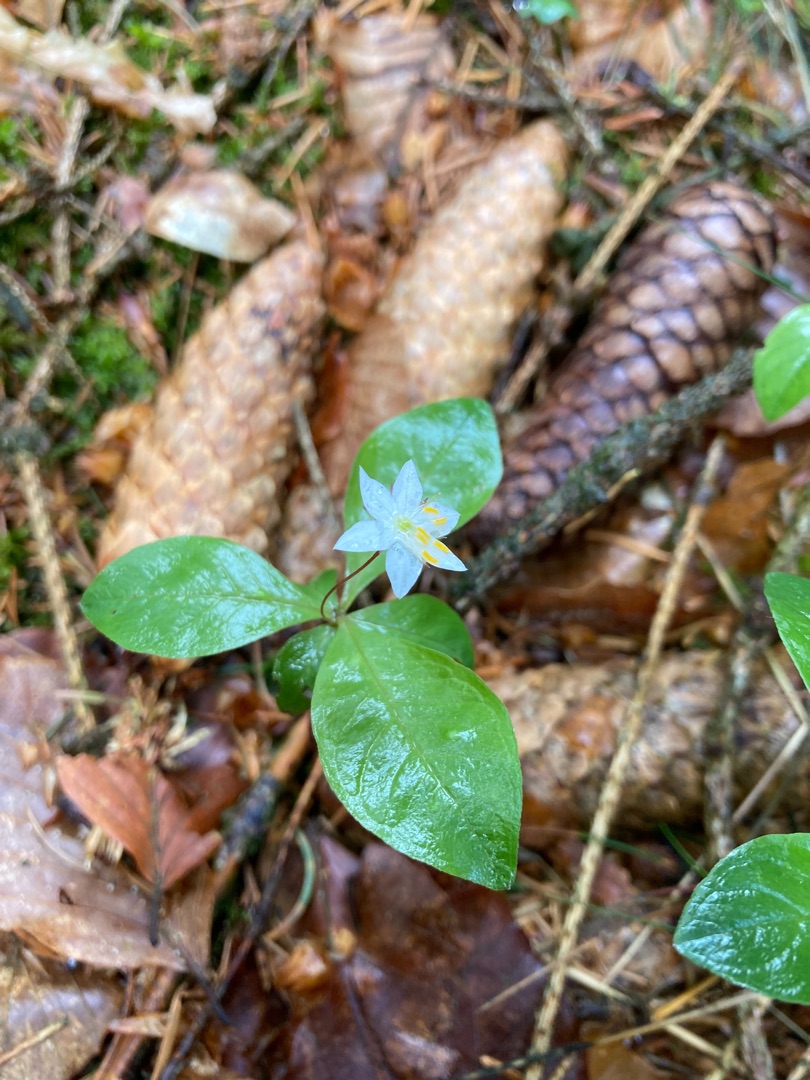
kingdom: Plantae
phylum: Tracheophyta
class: Magnoliopsida
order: Ericales
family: Primulaceae
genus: Lysimachia
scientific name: Lysimachia europaea
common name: Skovstjerne
